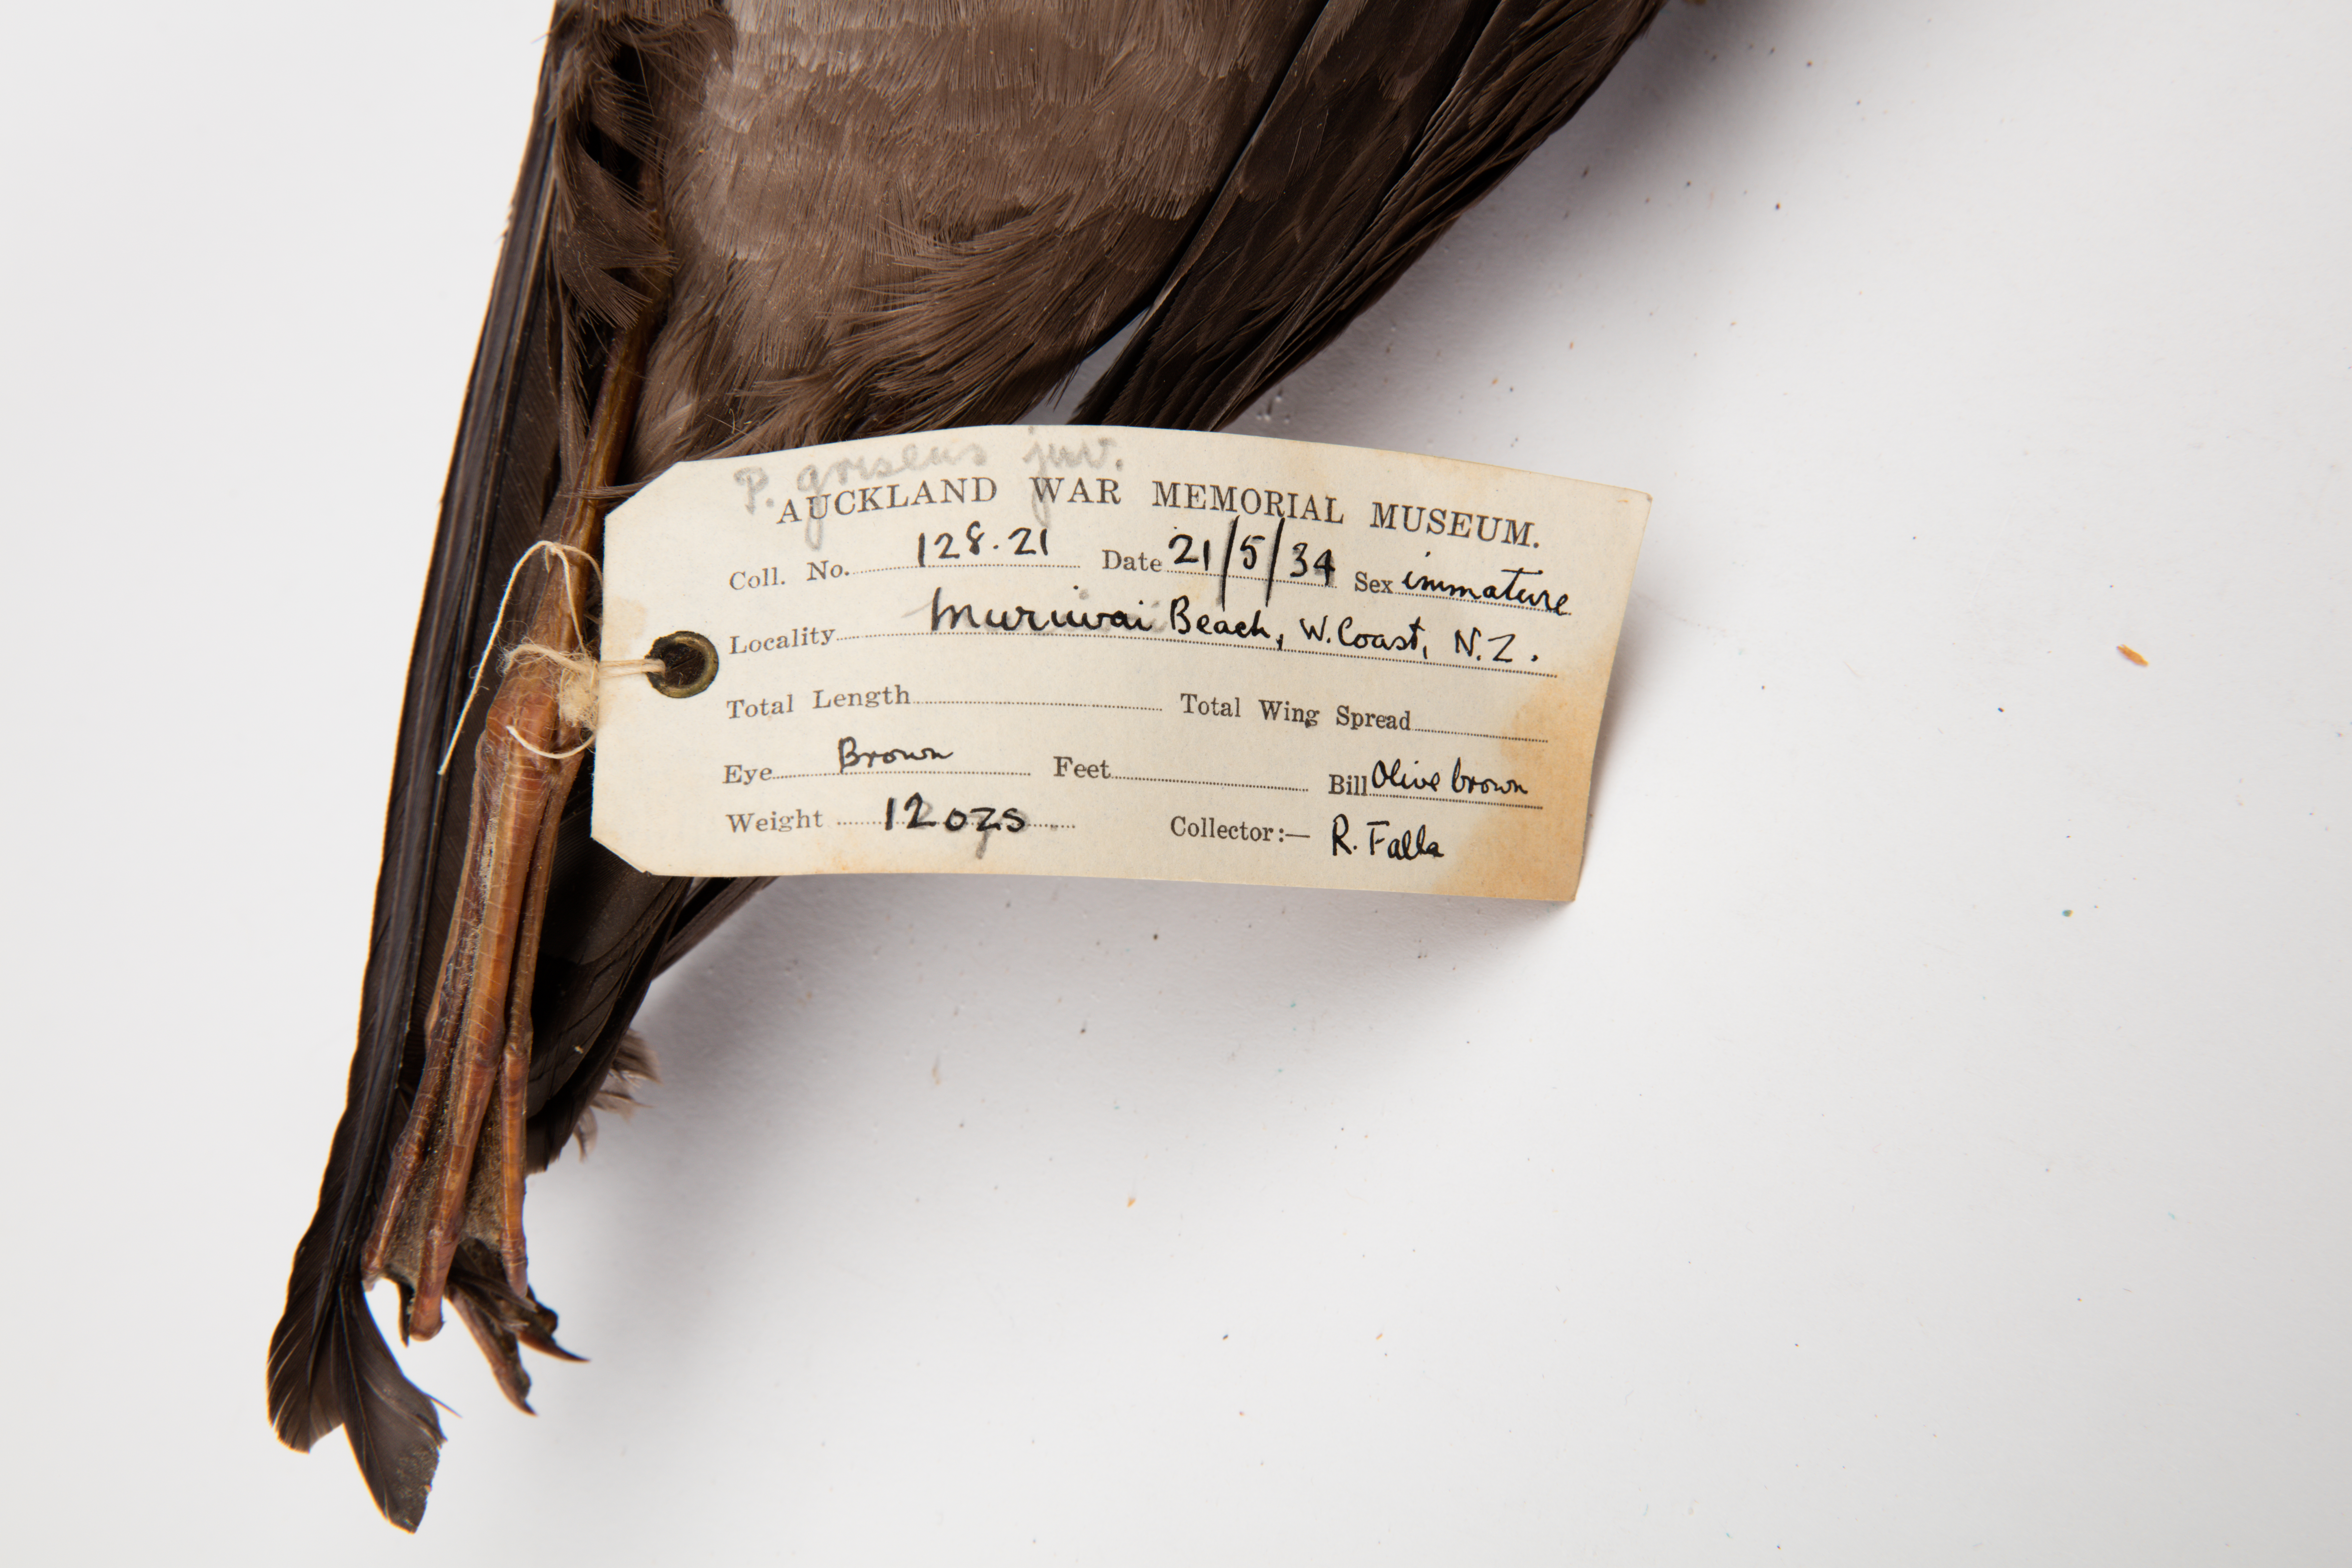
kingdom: Animalia
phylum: Chordata
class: Aves
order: Procellariiformes
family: Procellariidae
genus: Puffinus
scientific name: Puffinus griseus
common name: Sooty shearwater
